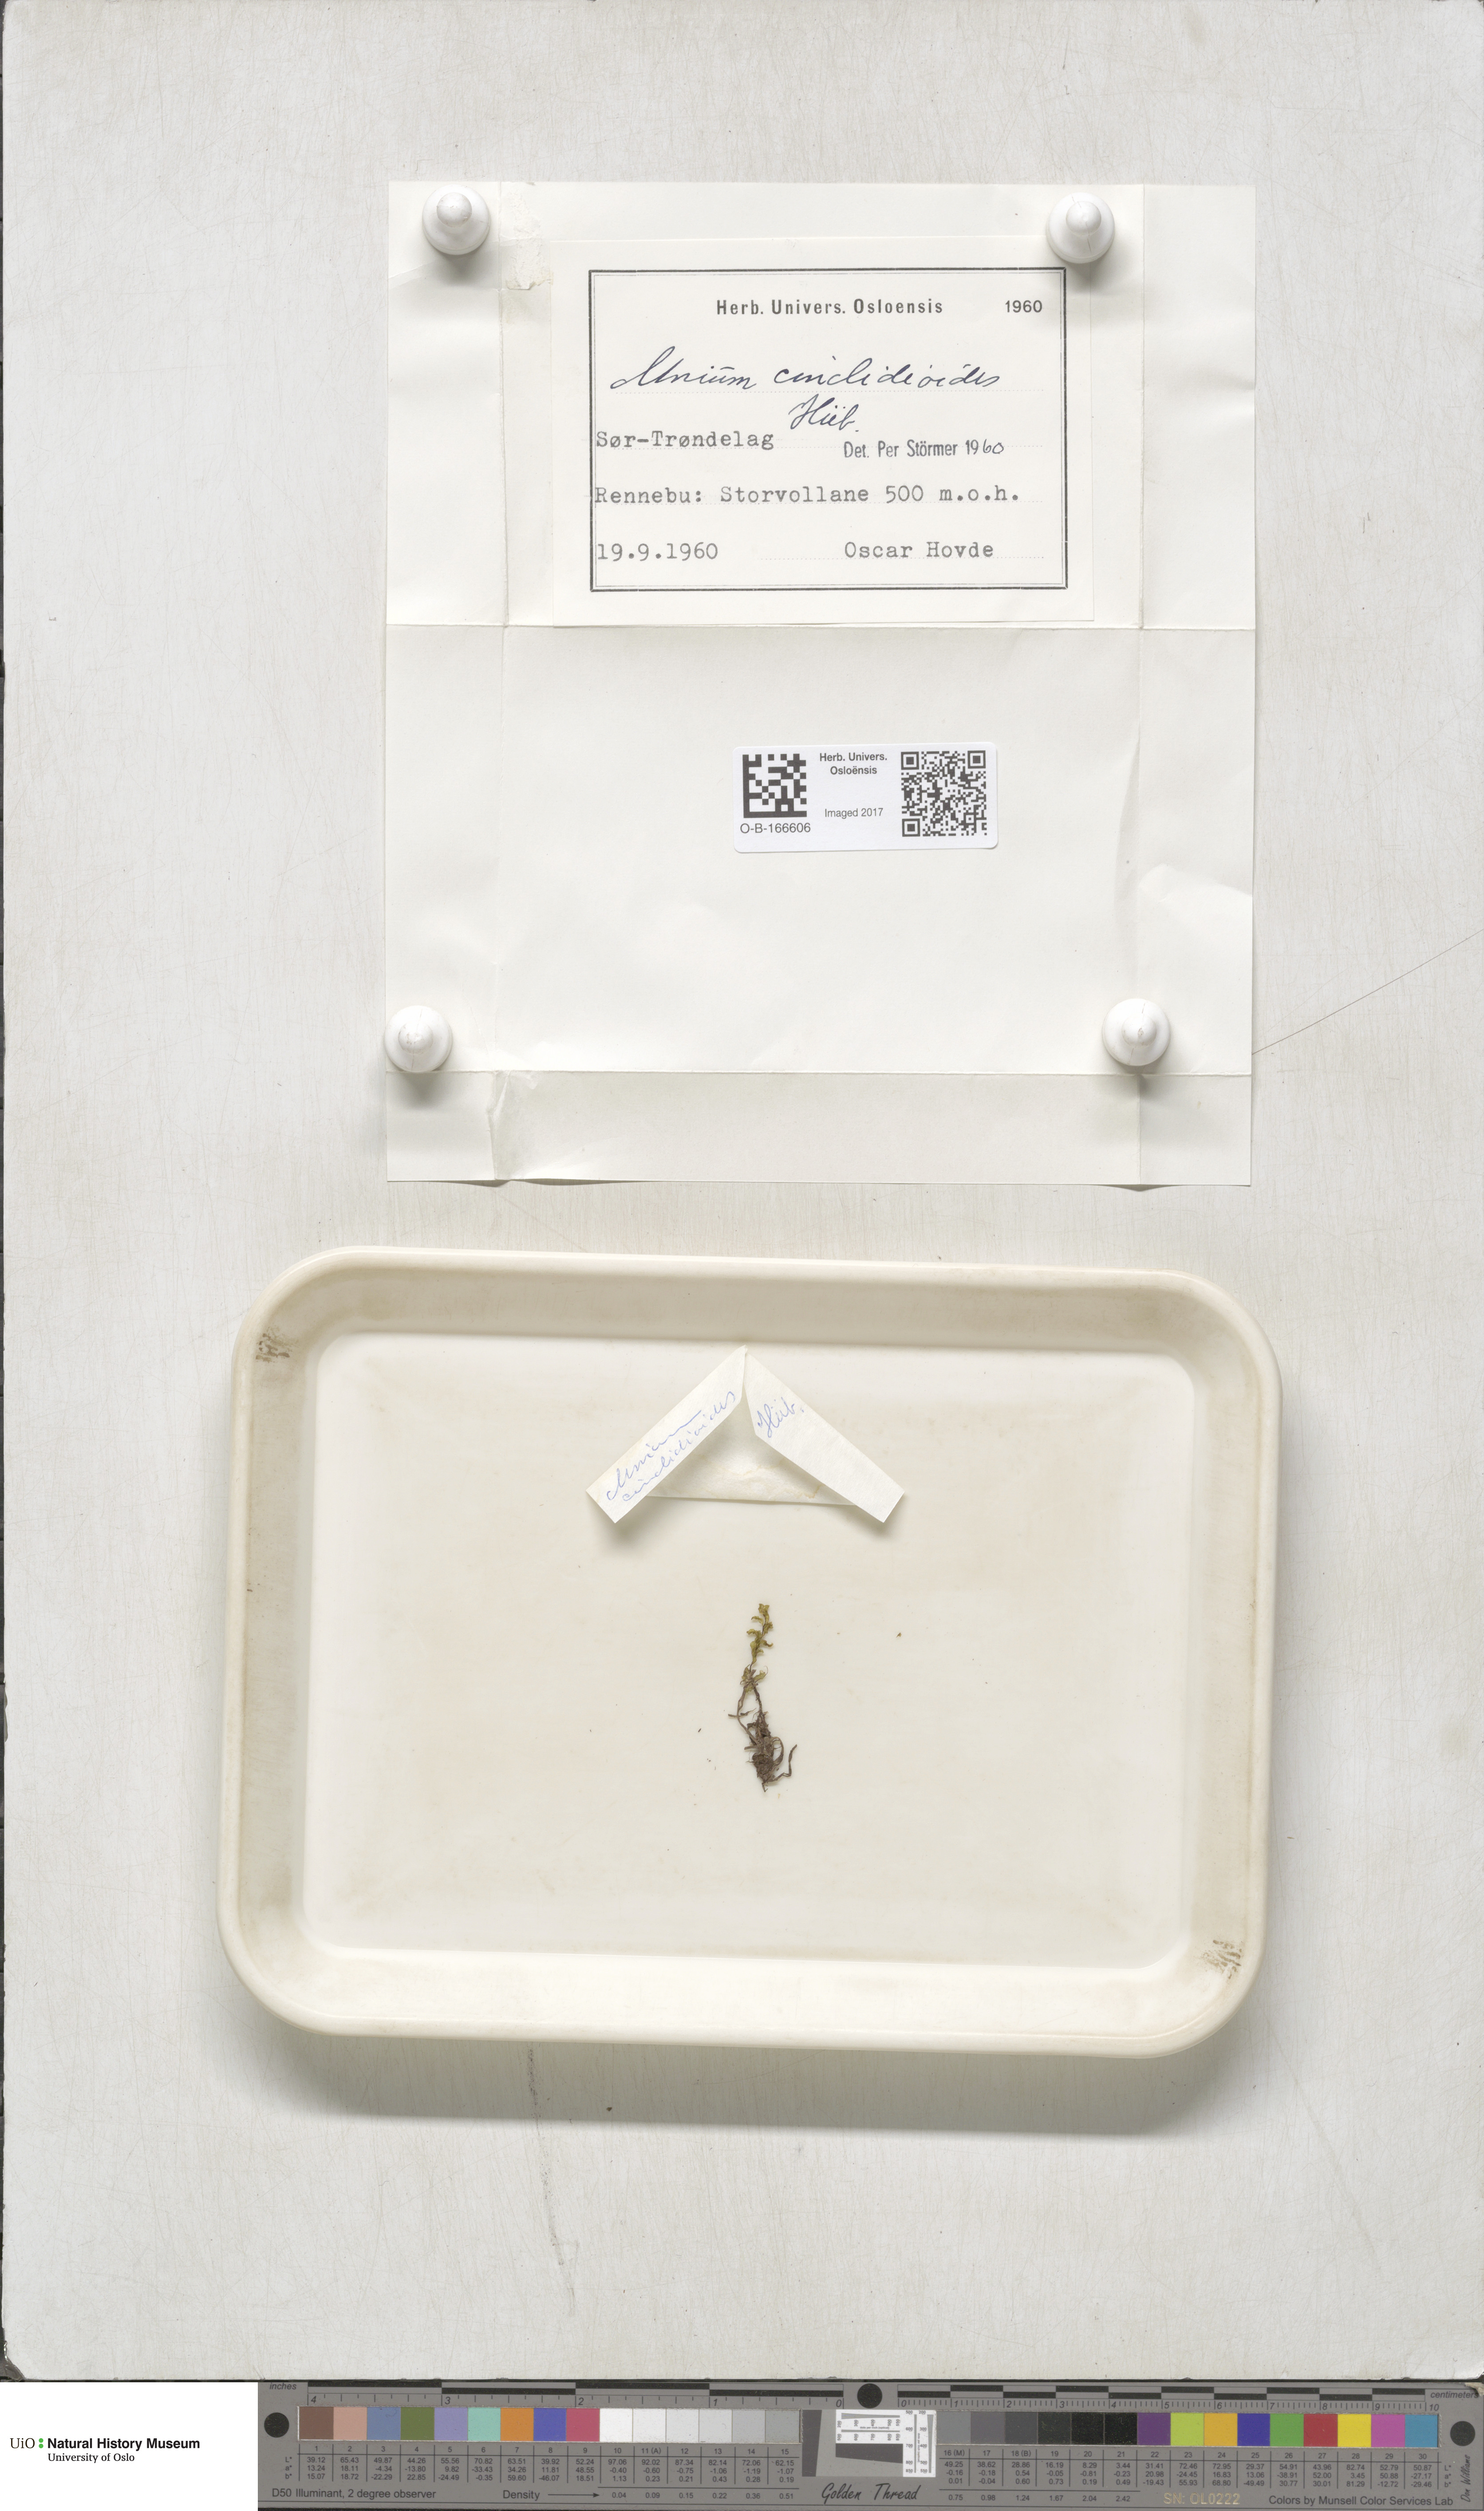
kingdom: Plantae
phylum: Bryophyta
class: Bryopsida
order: Bryales
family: Mniaceae
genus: Pseudobryum
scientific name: Pseudobryum cinclidioides
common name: River thyme moss
